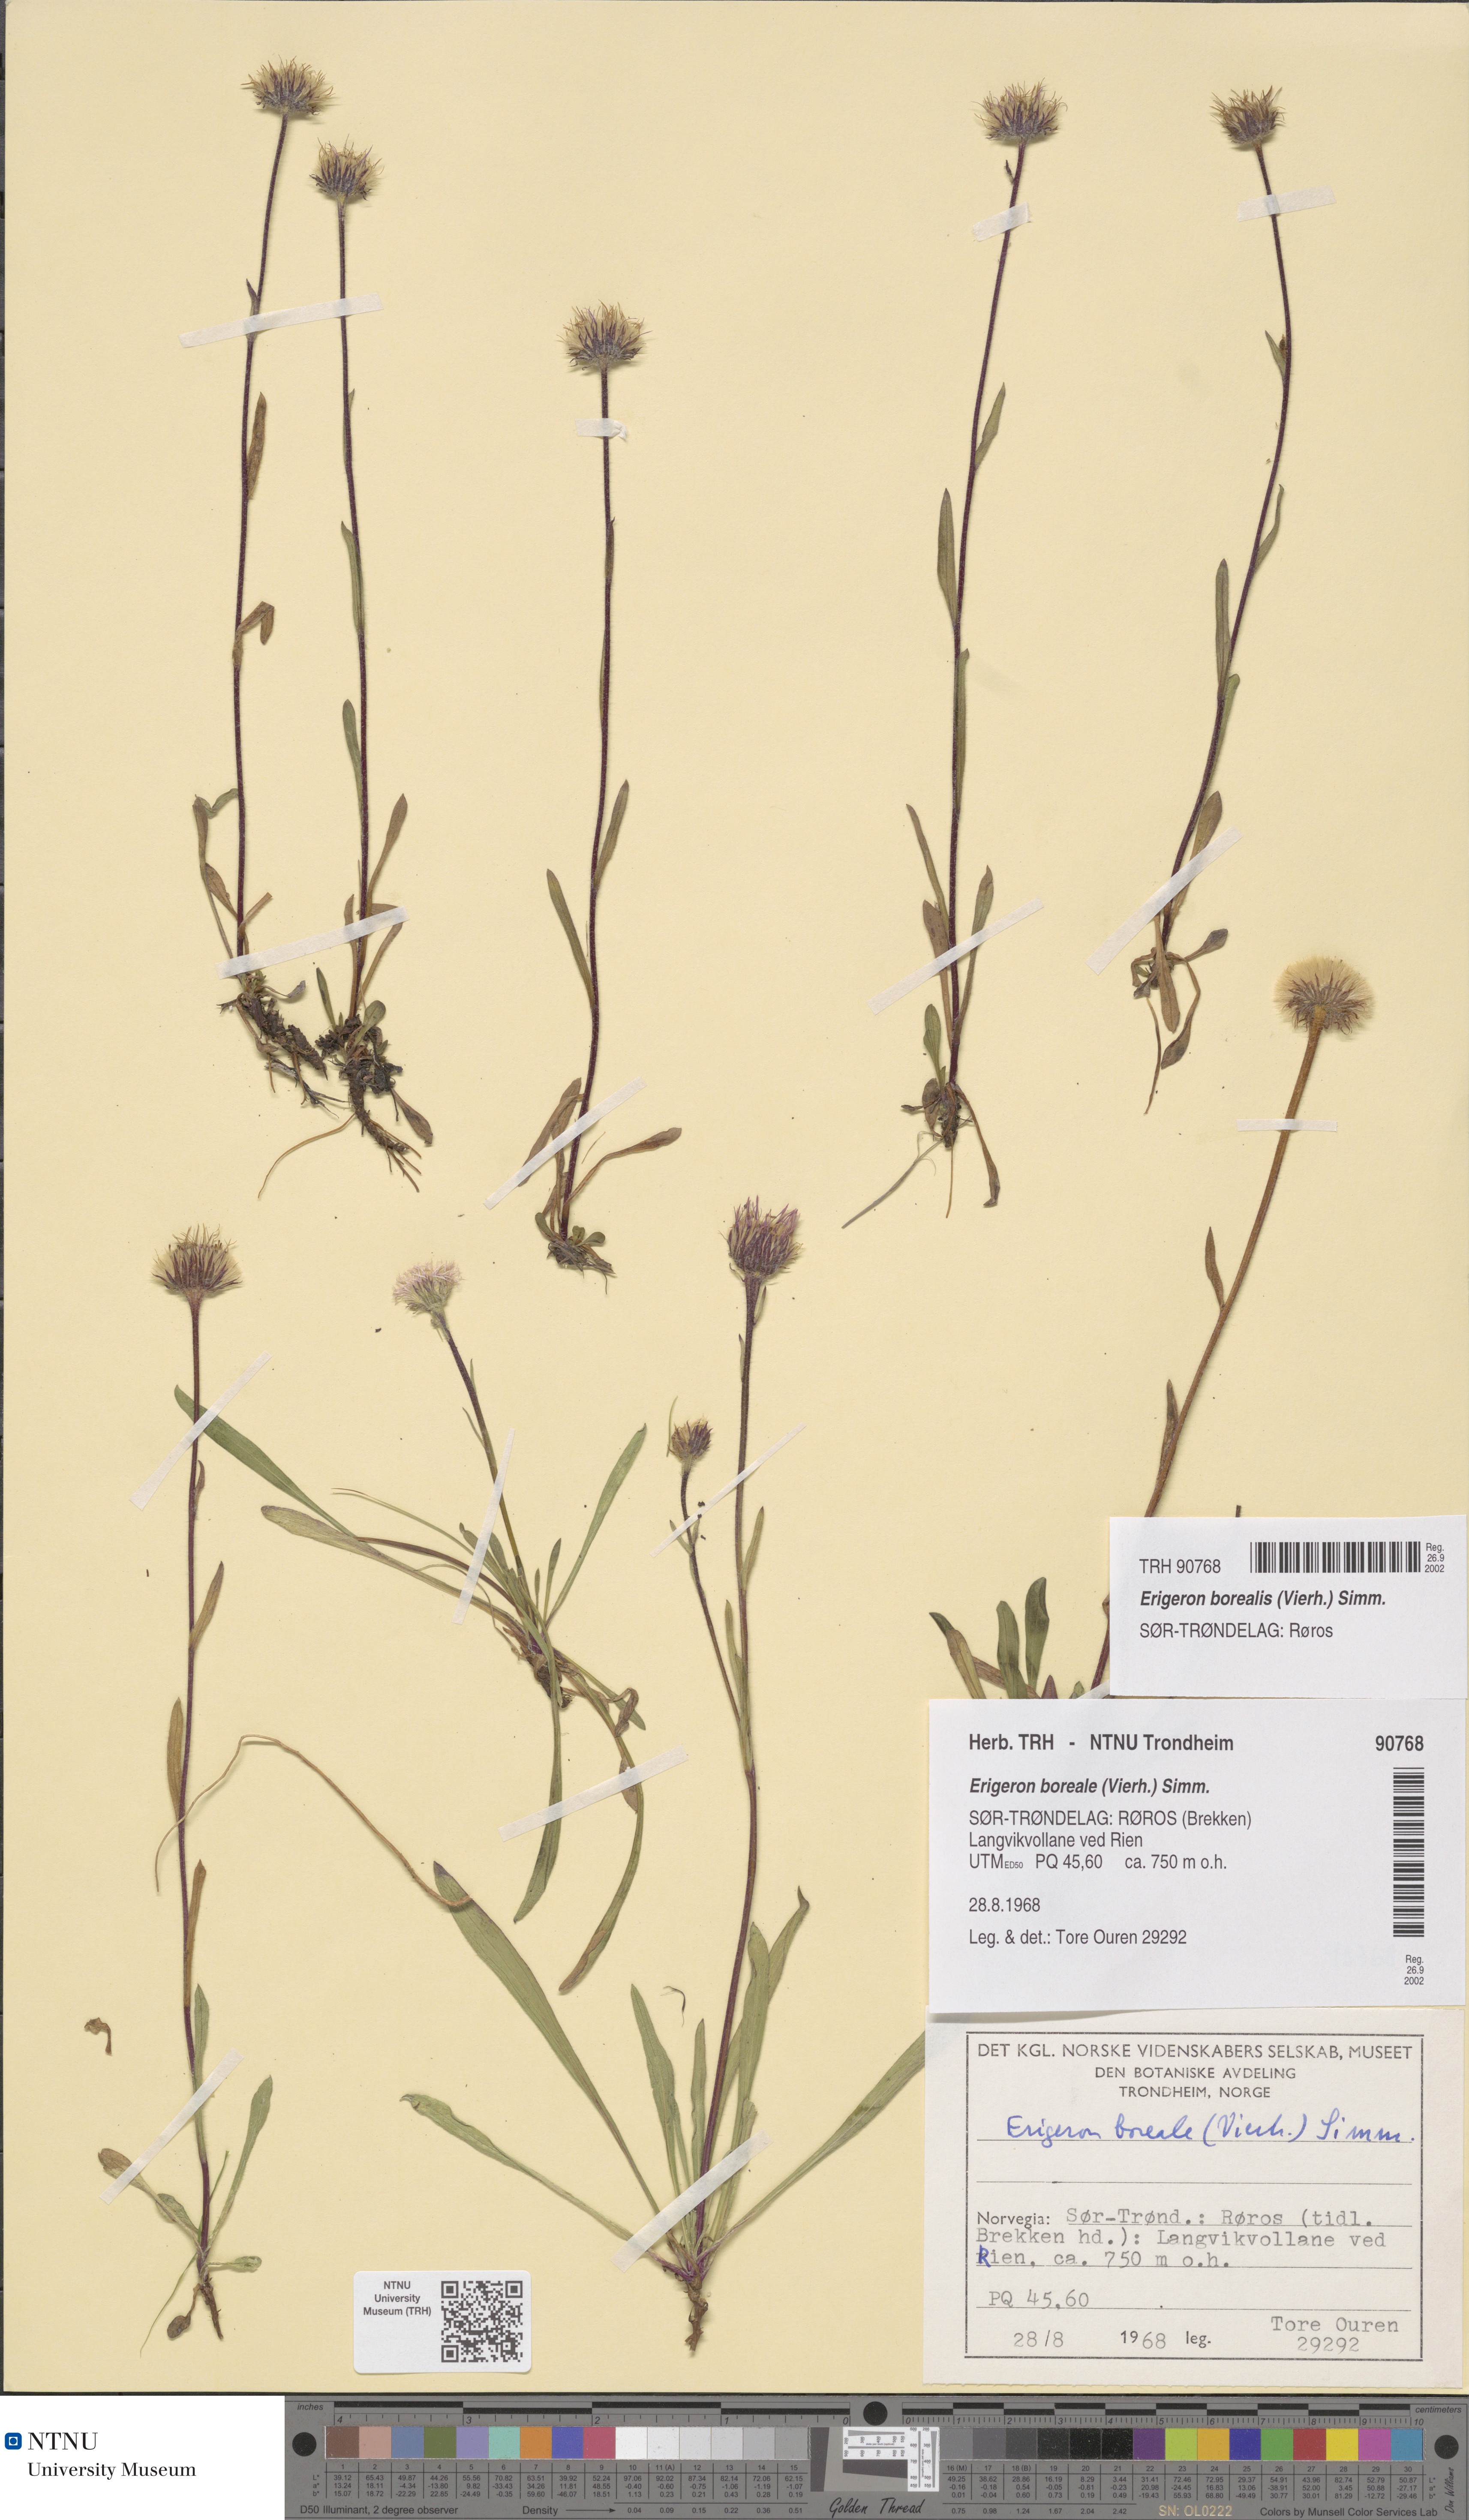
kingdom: Plantae
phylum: Tracheophyta
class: Magnoliopsida
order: Asterales
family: Asteraceae
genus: Erigeron
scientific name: Erigeron borealis
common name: Alpine fleabane
